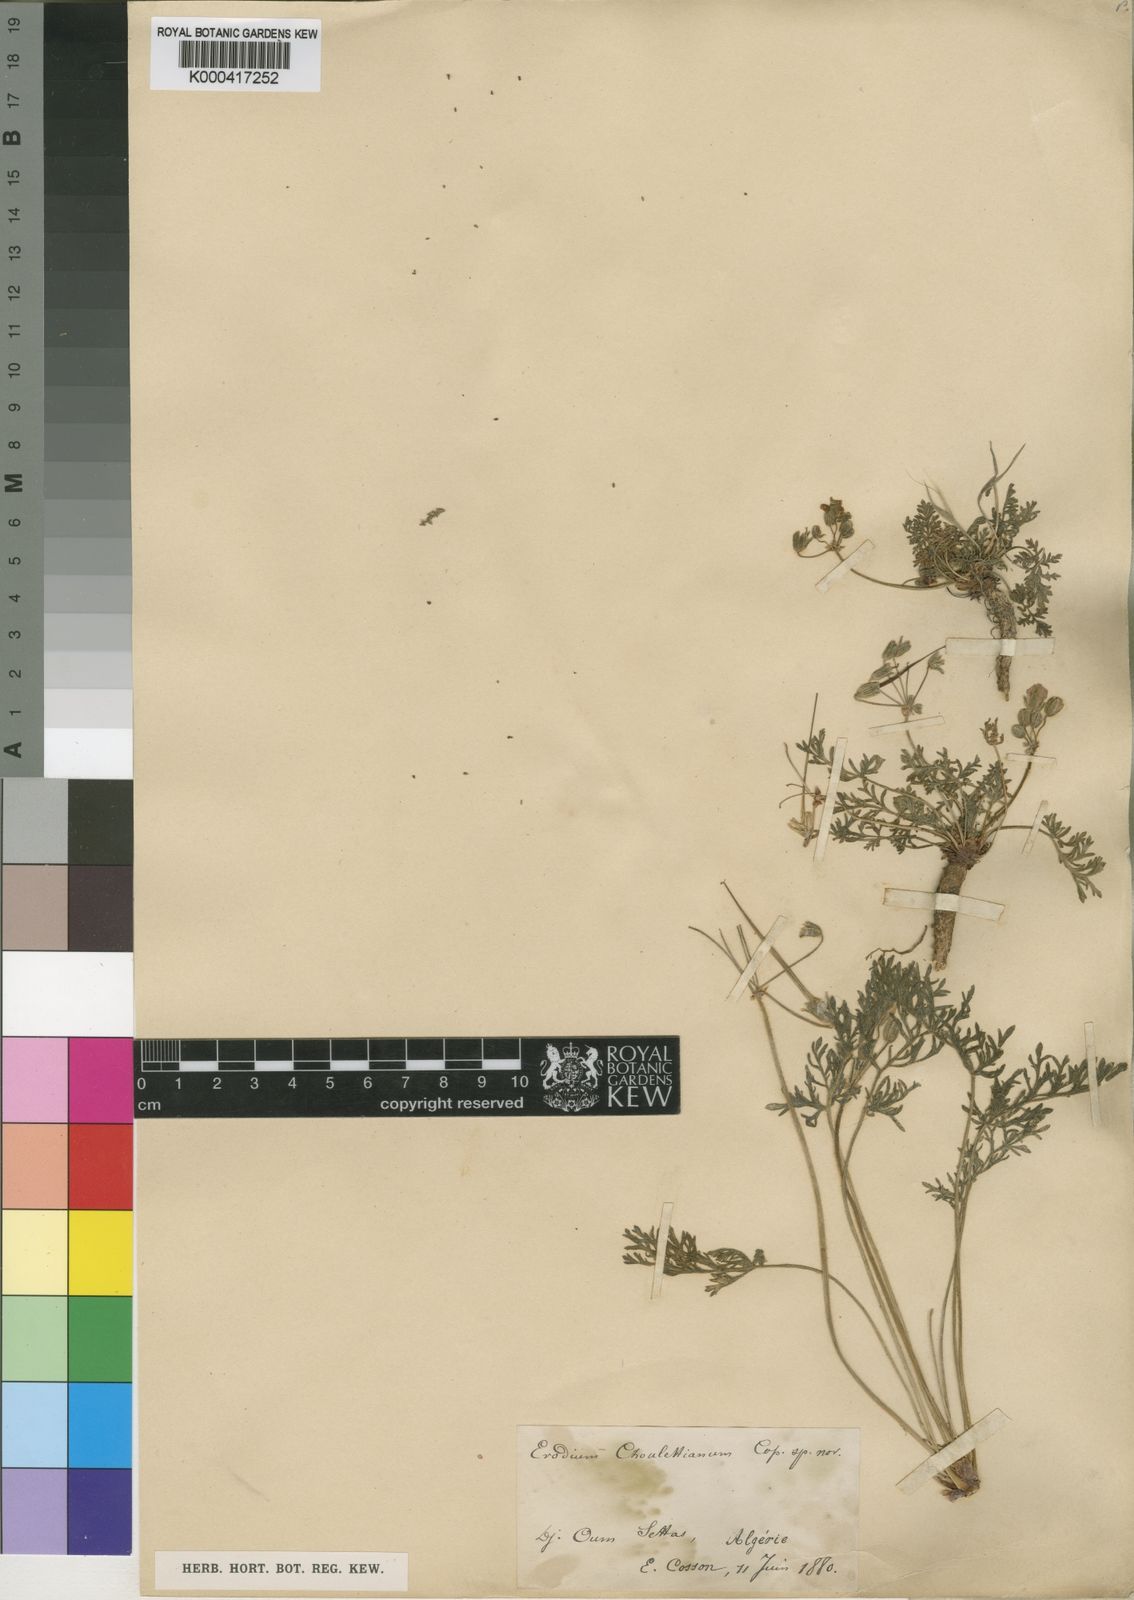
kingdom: Plantae
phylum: Tracheophyta
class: Magnoliopsida
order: Geraniales
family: Geraniaceae
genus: Erodium
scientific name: Erodium
